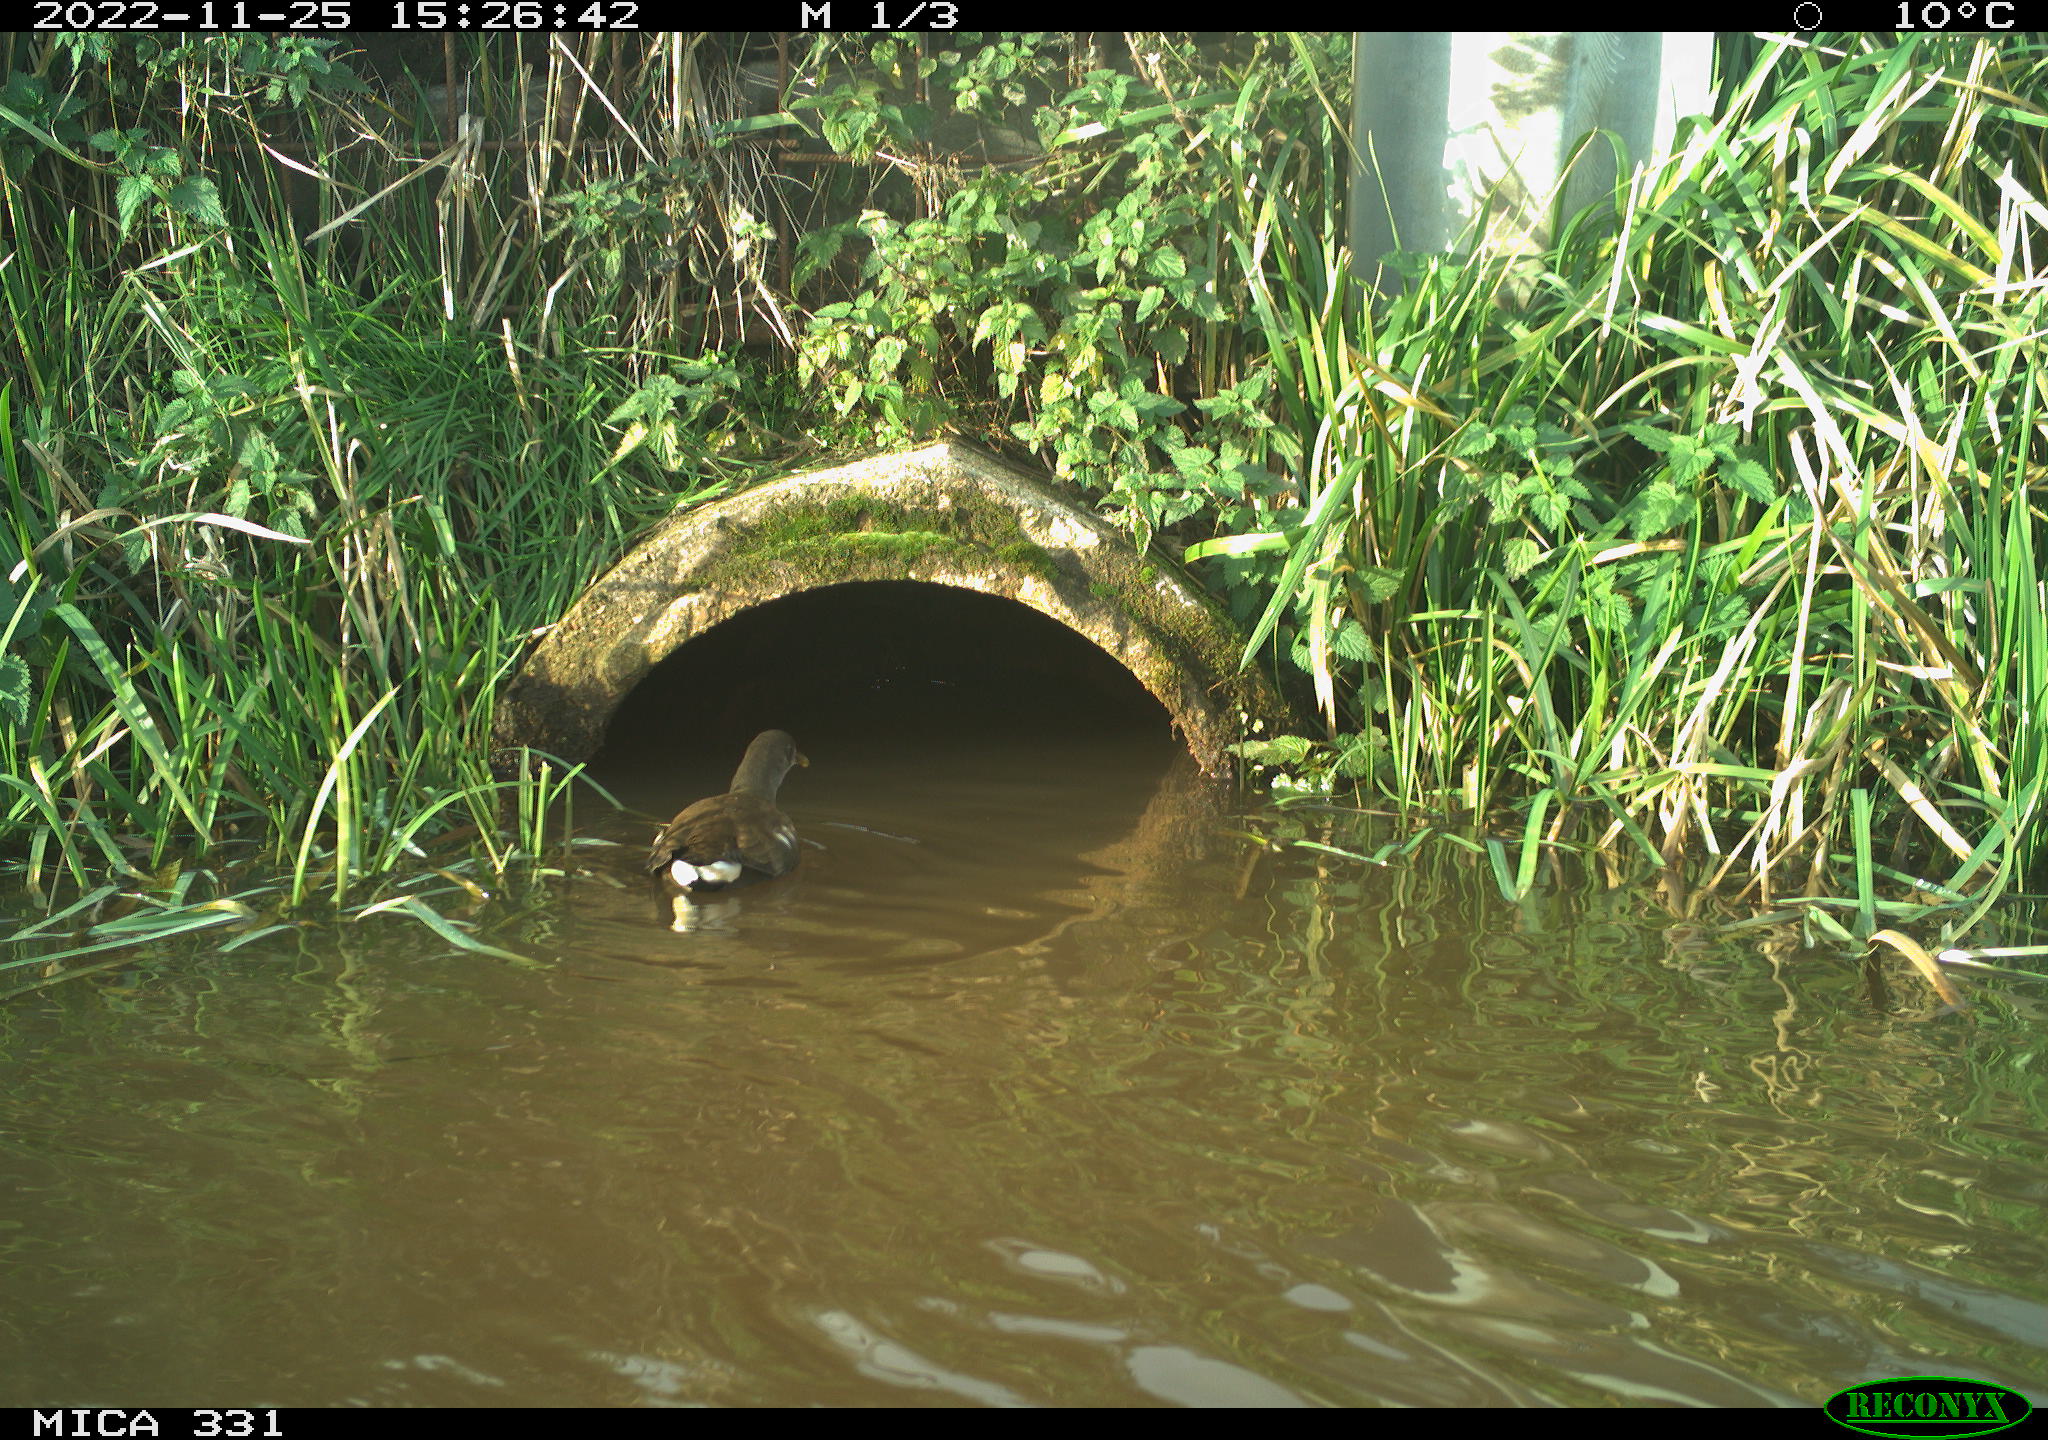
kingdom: Animalia
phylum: Chordata
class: Aves
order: Gruiformes
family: Rallidae
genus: Gallinula
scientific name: Gallinula chloropus
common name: Common moorhen
